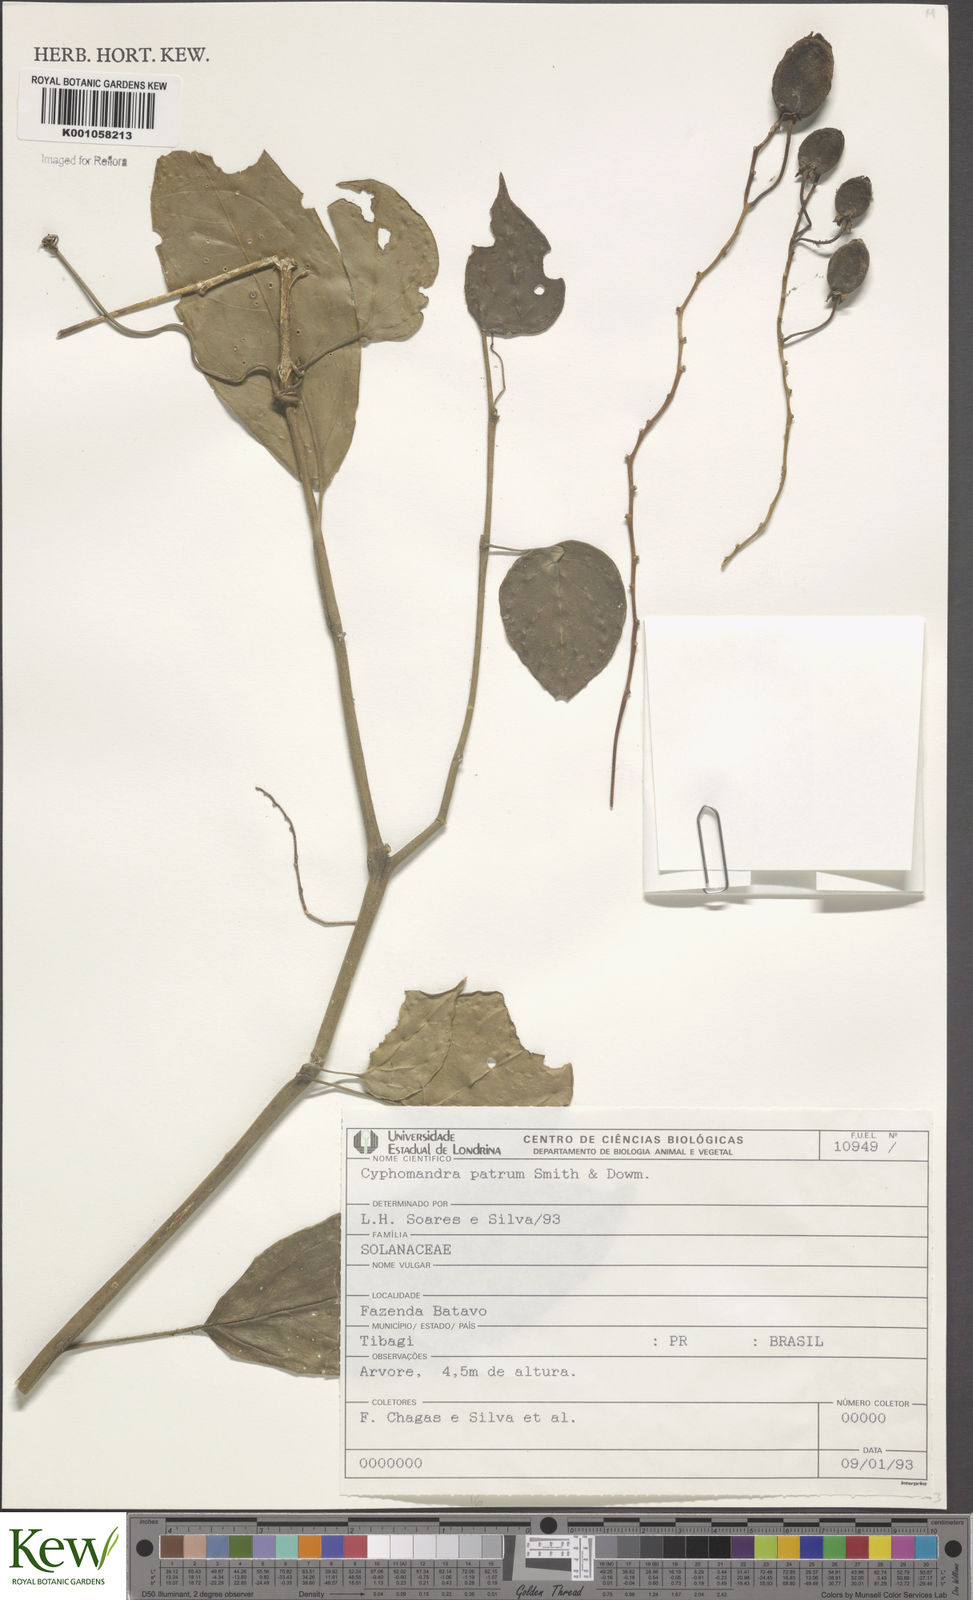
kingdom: Plantae
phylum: Tracheophyta
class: Magnoliopsida
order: Solanales
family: Solanaceae
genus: Solanum
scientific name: Solanum corymbiflorum
